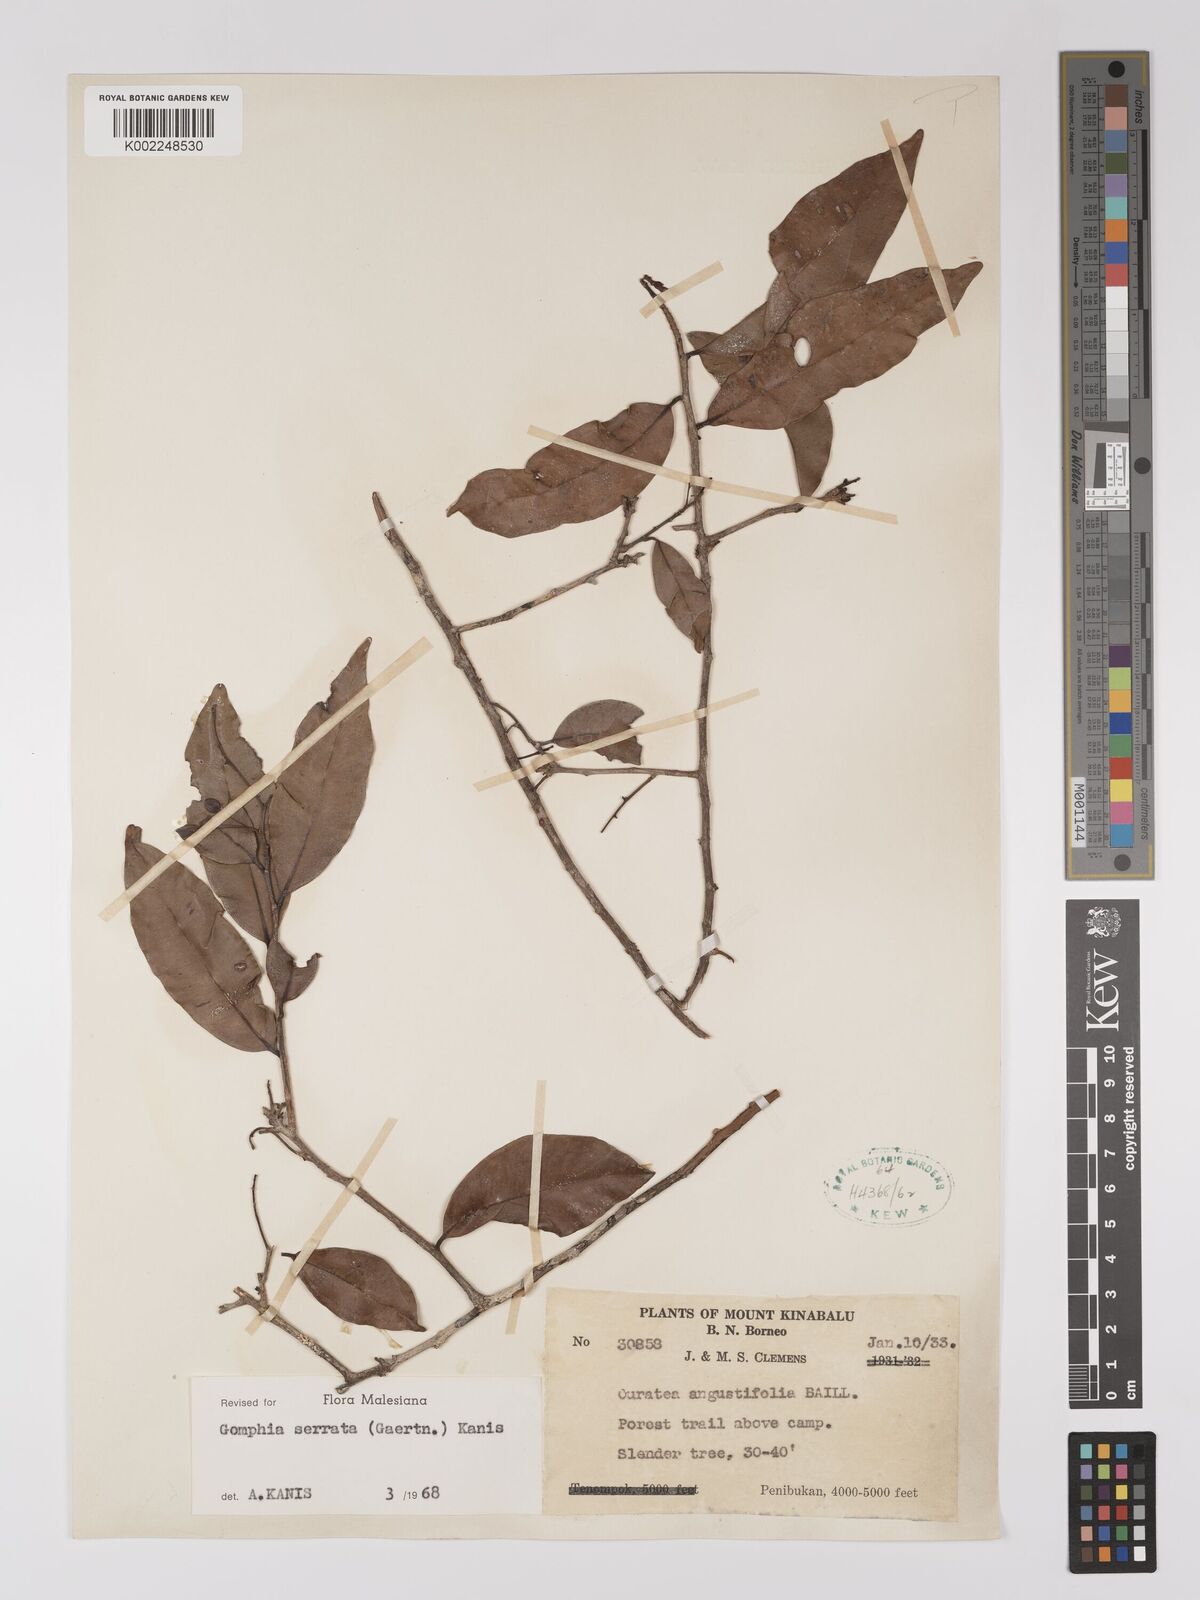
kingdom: Plantae
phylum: Tracheophyta
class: Magnoliopsida
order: Malpighiales
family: Ochnaceae
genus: Gomphia
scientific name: Gomphia serrata
